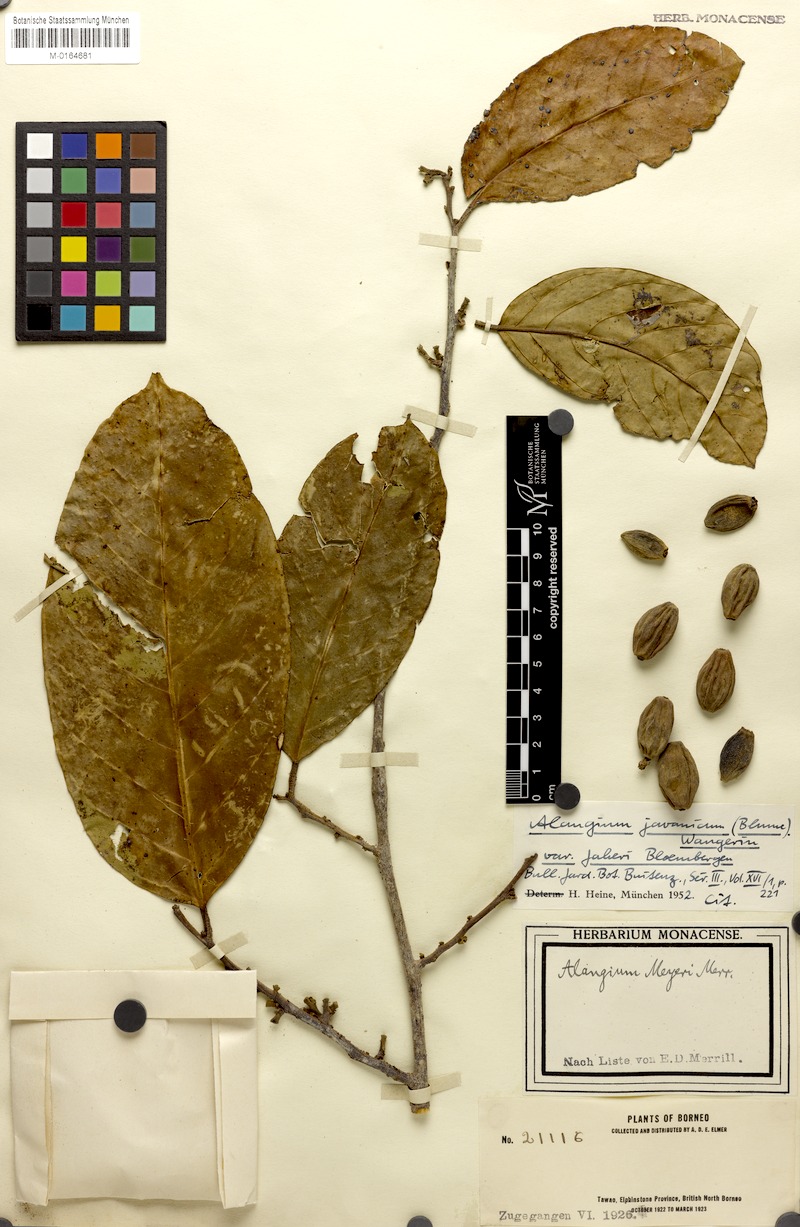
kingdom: Plantae
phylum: Tracheophyta
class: Magnoliopsida
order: Cornales
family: Cornaceae
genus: Alangium
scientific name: Alangium minahassicum
